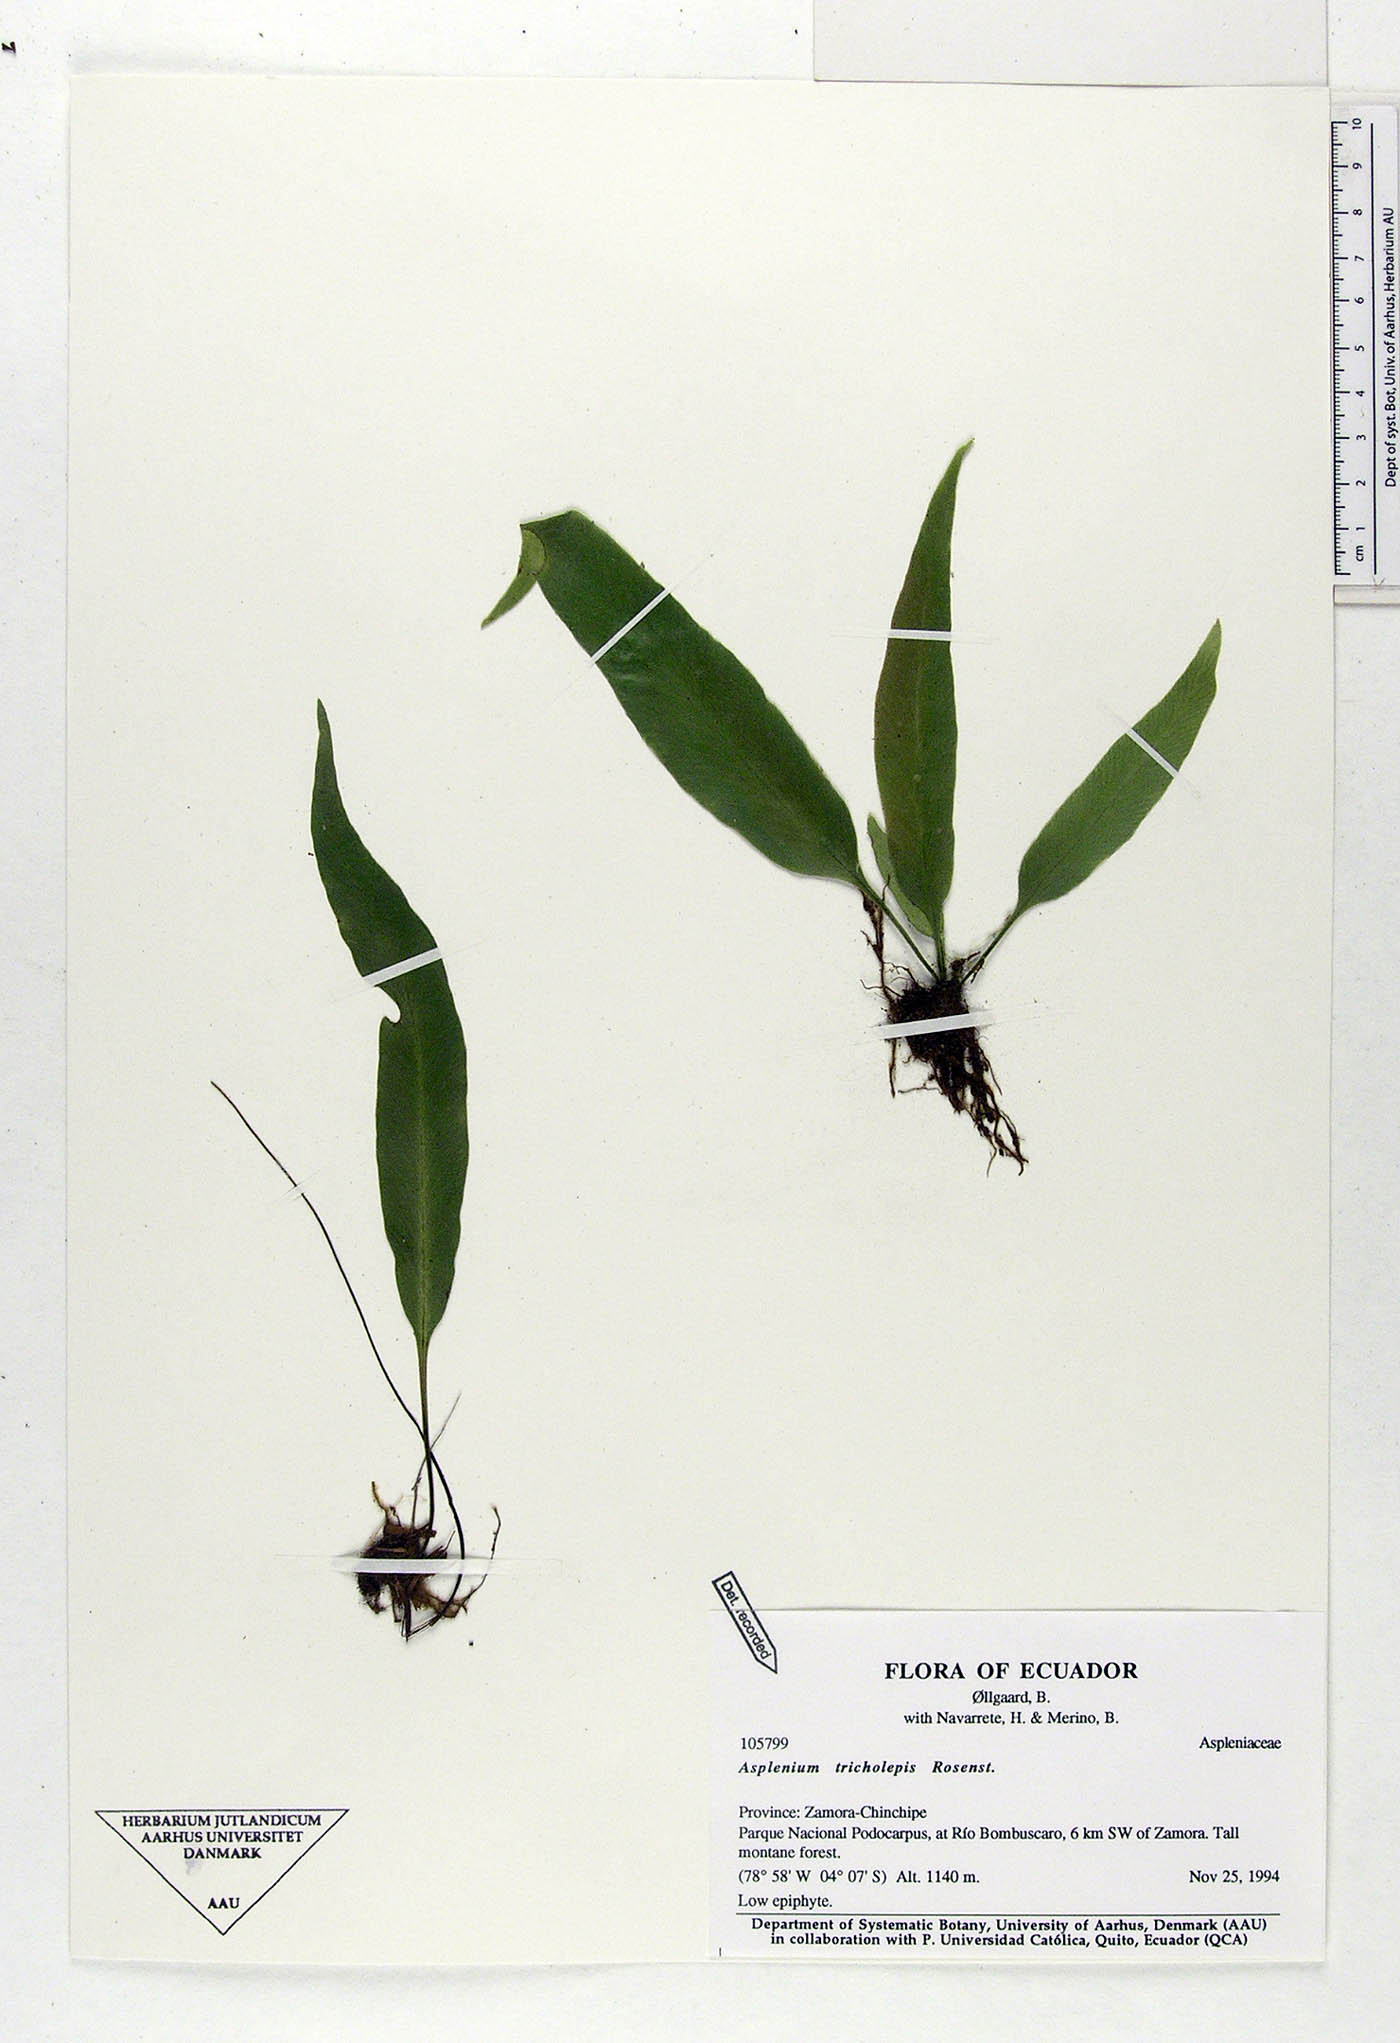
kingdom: Plantae
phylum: Tracheophyta
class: Polypodiopsida
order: Polypodiales
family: Aspleniaceae
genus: Asplenium
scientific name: Asplenium tricholepis
